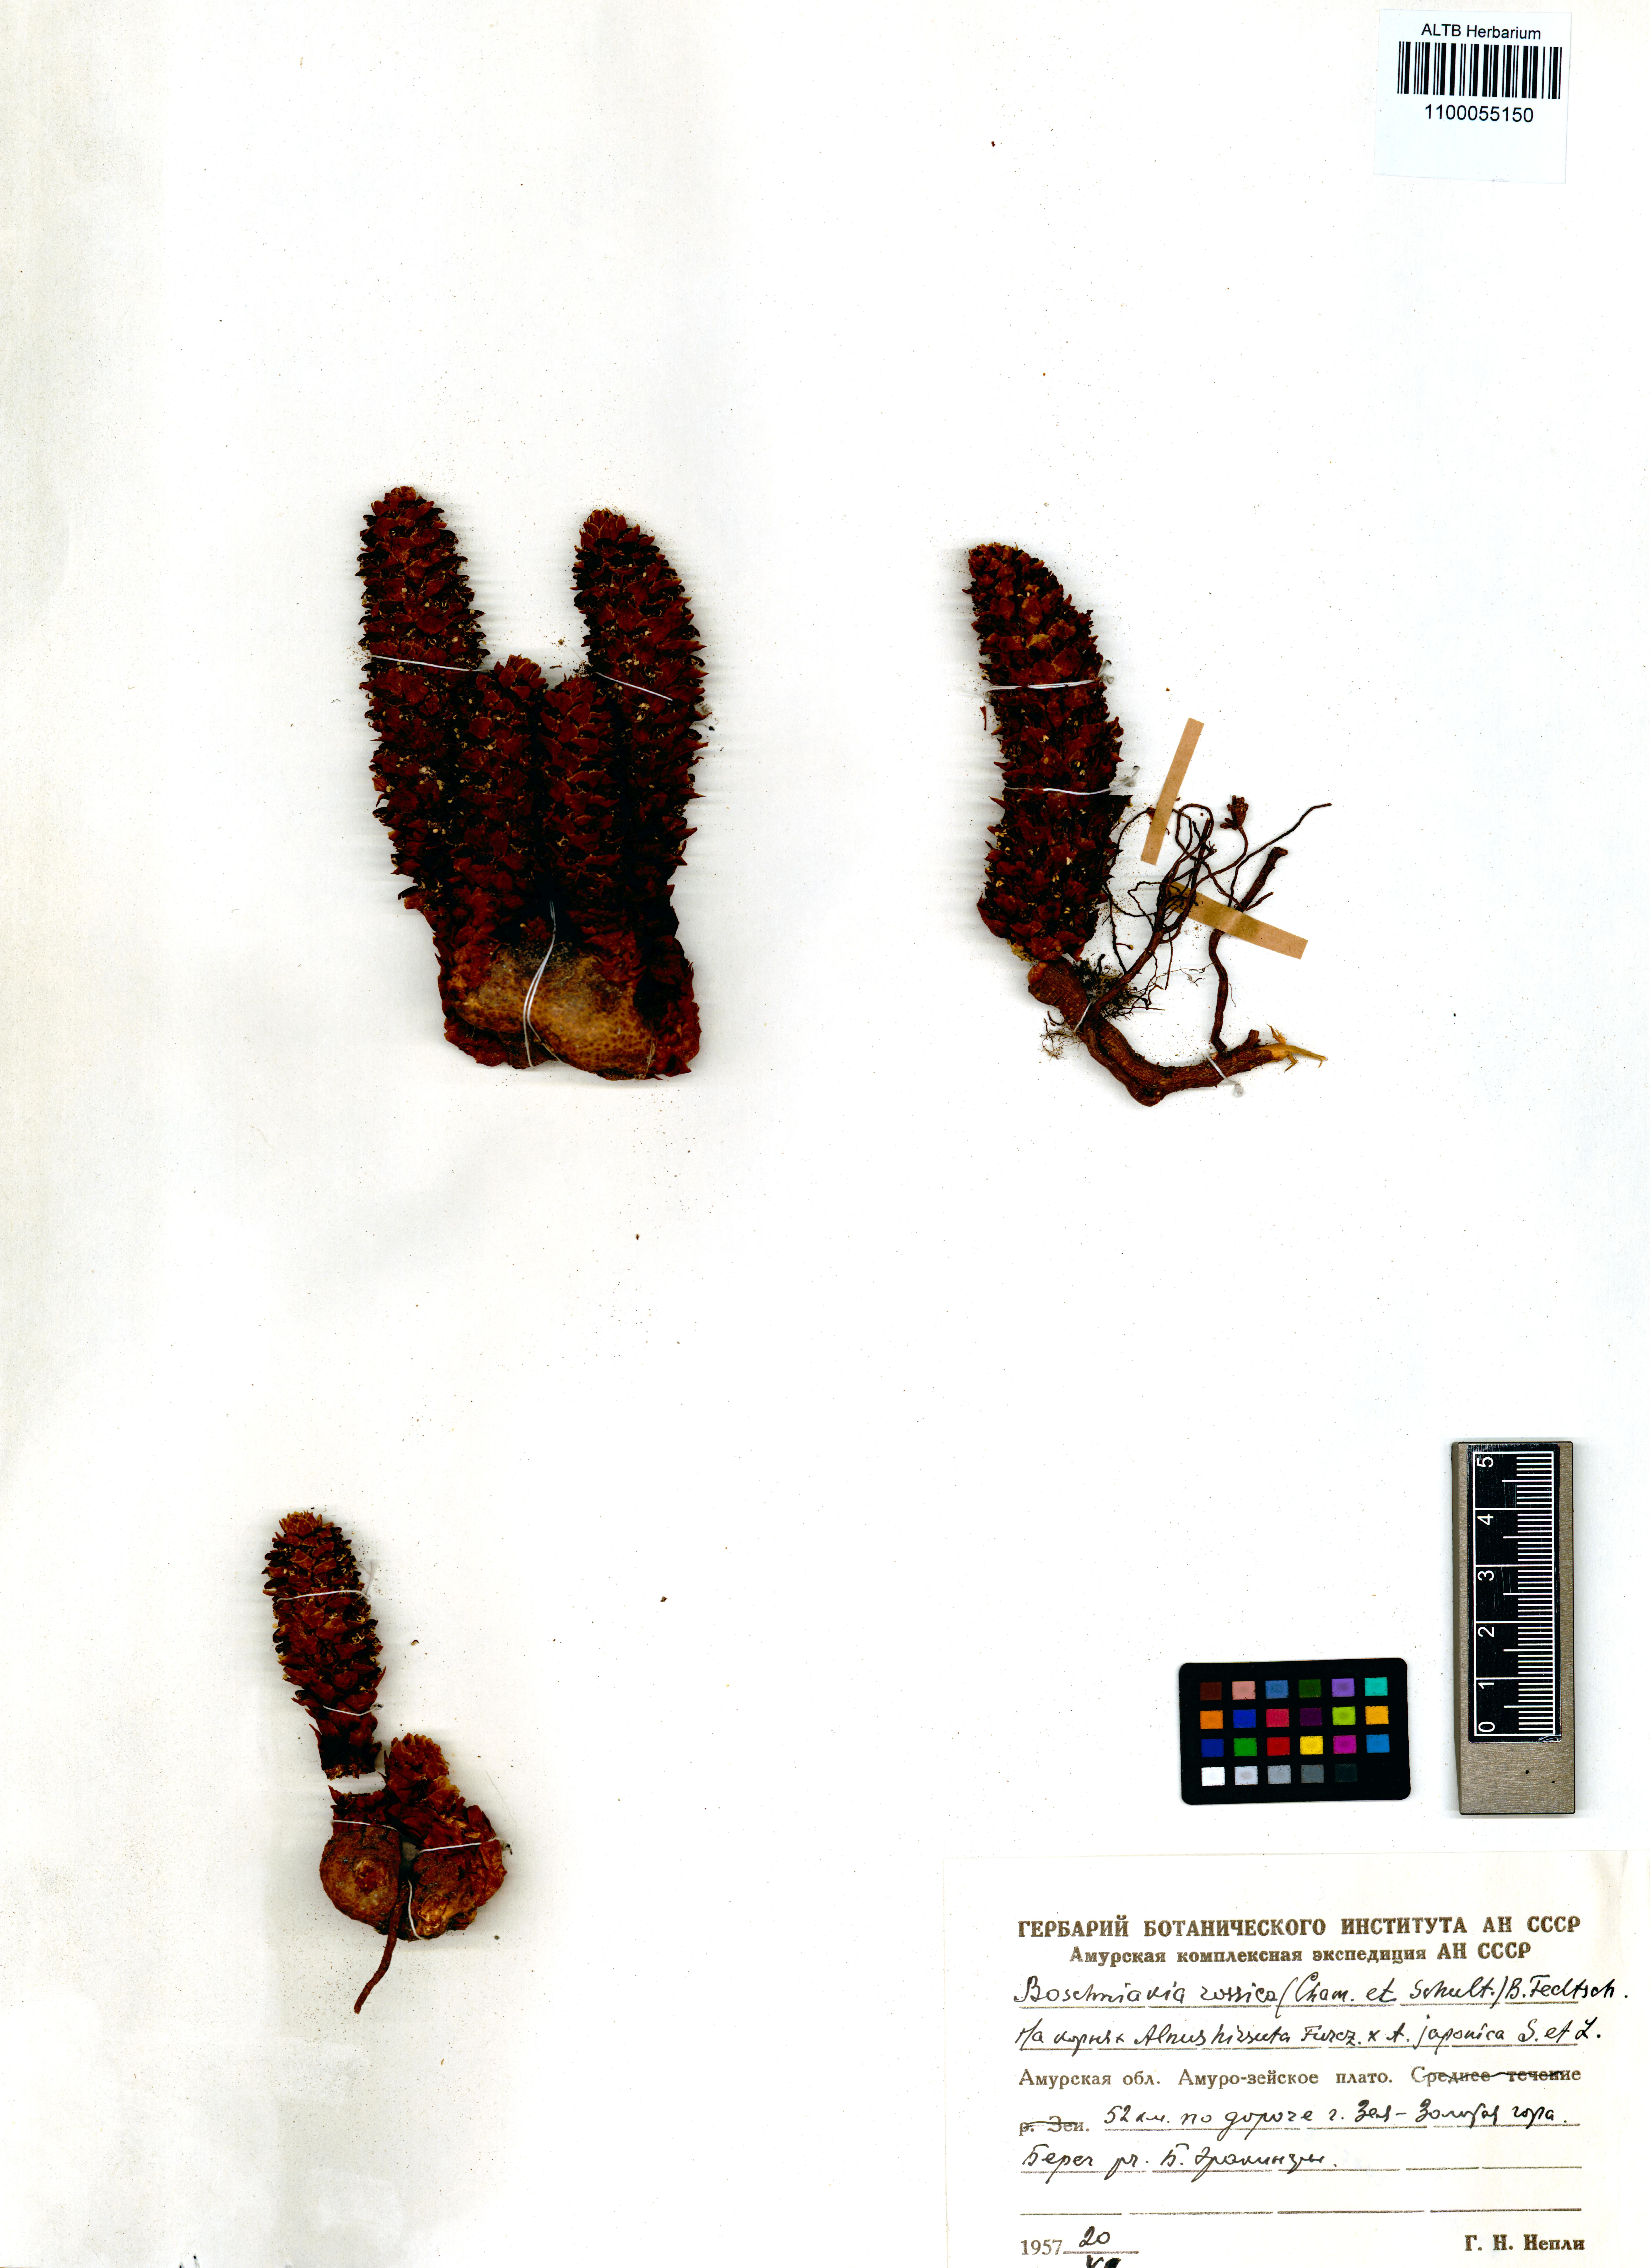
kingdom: Plantae
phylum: Tracheophyta
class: Magnoliopsida
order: Lamiales
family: Orobanchaceae
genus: Boschniakia
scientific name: Boschniakia rossica
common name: Poque
